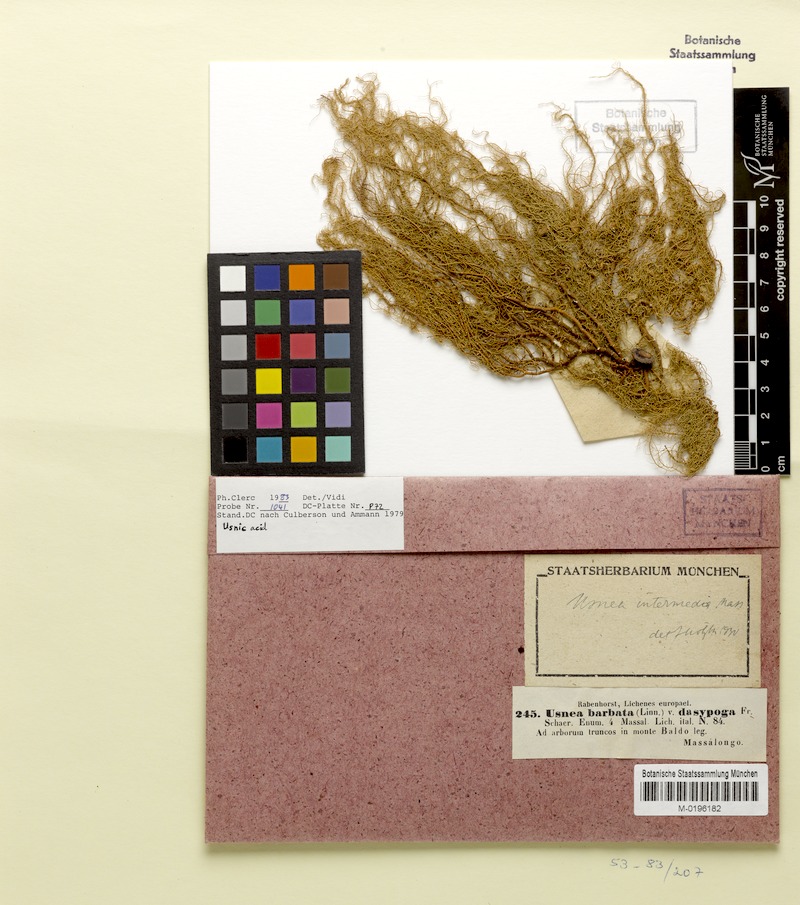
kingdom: Fungi
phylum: Ascomycota
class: Lecanoromycetes
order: Lecanorales
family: Parmeliaceae
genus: Usnea
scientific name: Usnea intermedia
